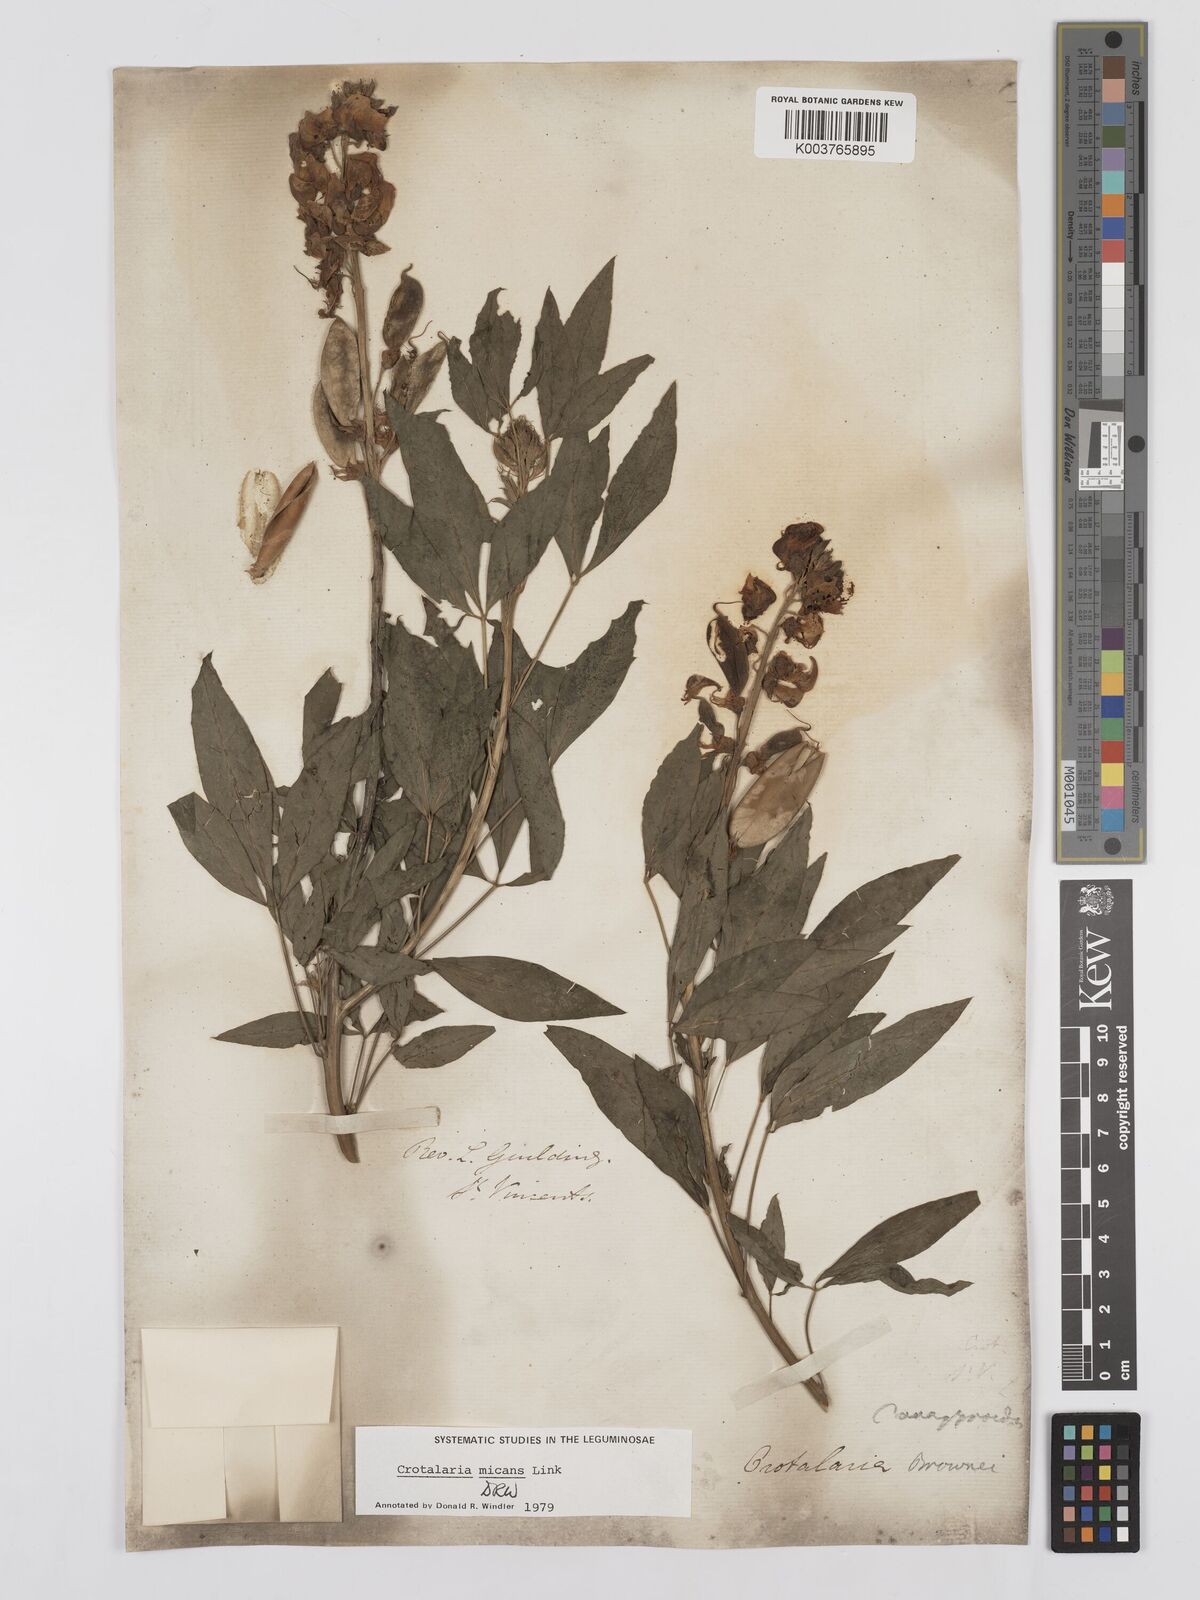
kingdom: Plantae
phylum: Tracheophyta
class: Magnoliopsida
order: Fabales
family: Fabaceae
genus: Crotalaria
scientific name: Crotalaria micans
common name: Caracas rattlebox
